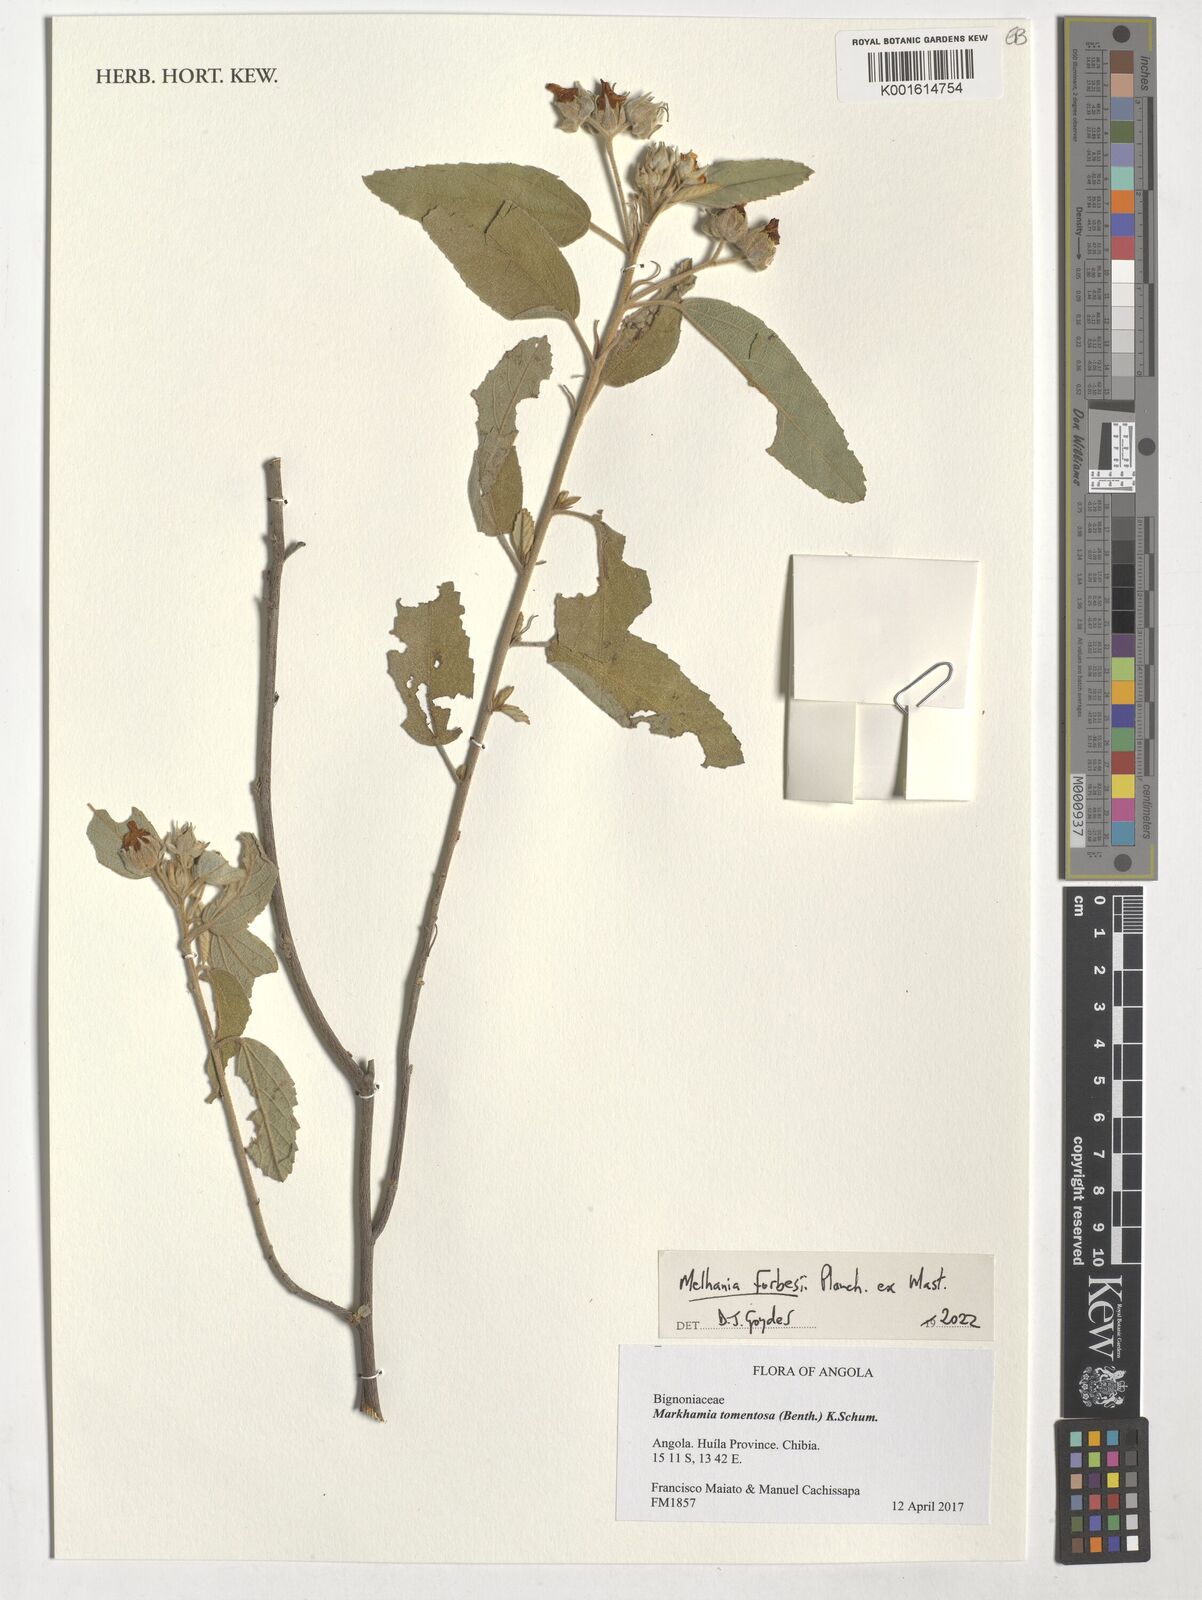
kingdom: Plantae
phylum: Tracheophyta
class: Magnoliopsida
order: Malvales
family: Malvaceae
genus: Melhania
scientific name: Melhania forbesii
